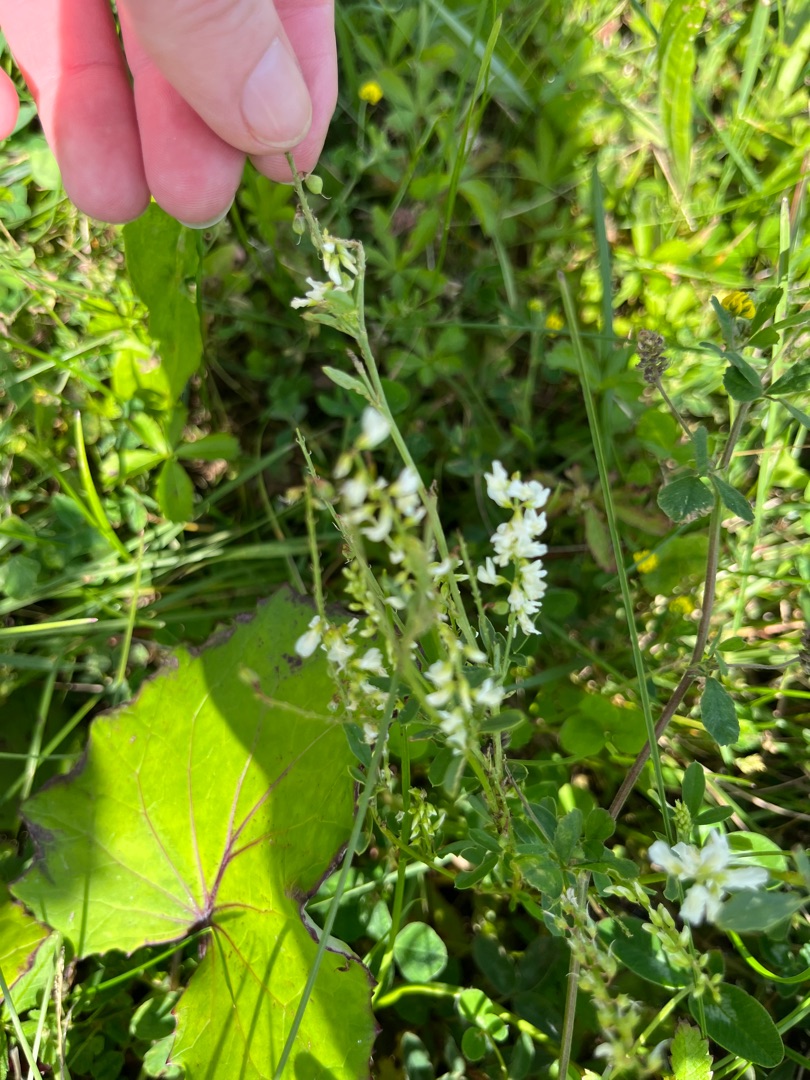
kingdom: Plantae
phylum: Tracheophyta
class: Magnoliopsida
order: Fabales
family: Fabaceae
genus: Melilotus
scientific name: Melilotus albus
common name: Hvid stenkløver
